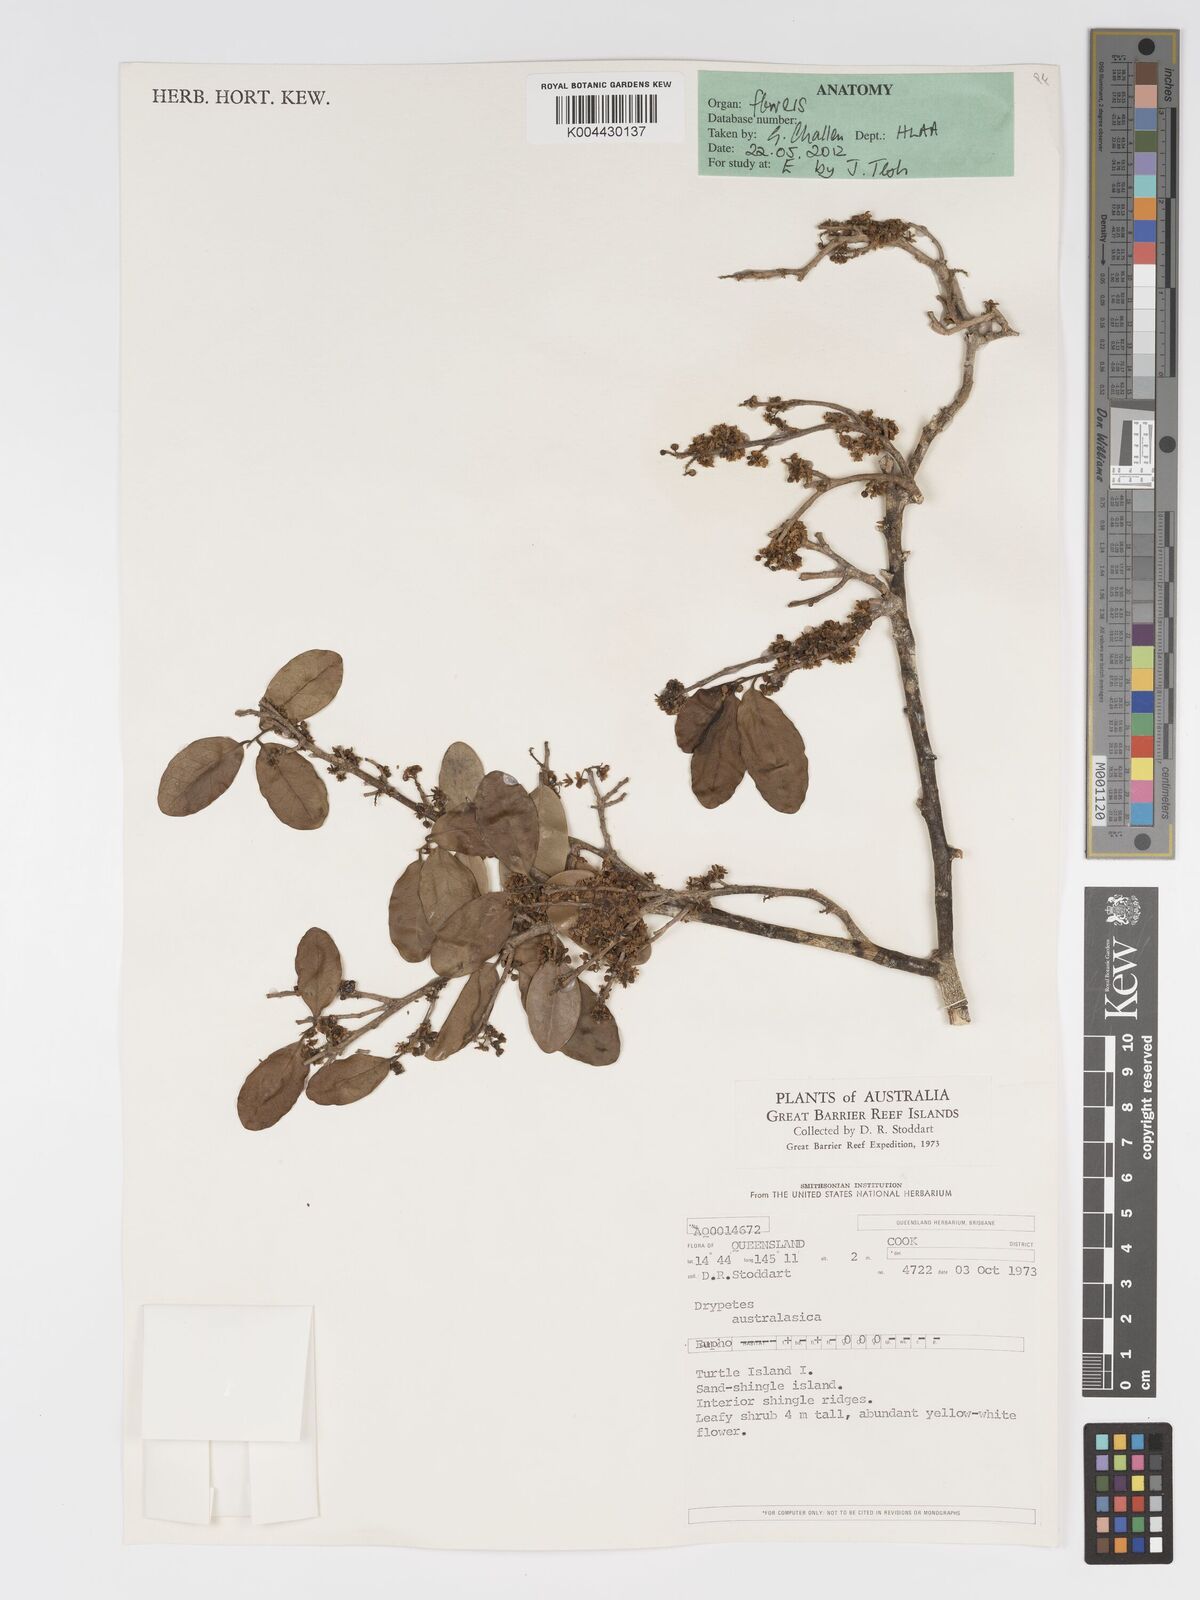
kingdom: Plantae
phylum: Tracheophyta
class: Magnoliopsida
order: Malpighiales
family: Putranjivaceae
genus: Drypetes
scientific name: Drypetes deplanchei
